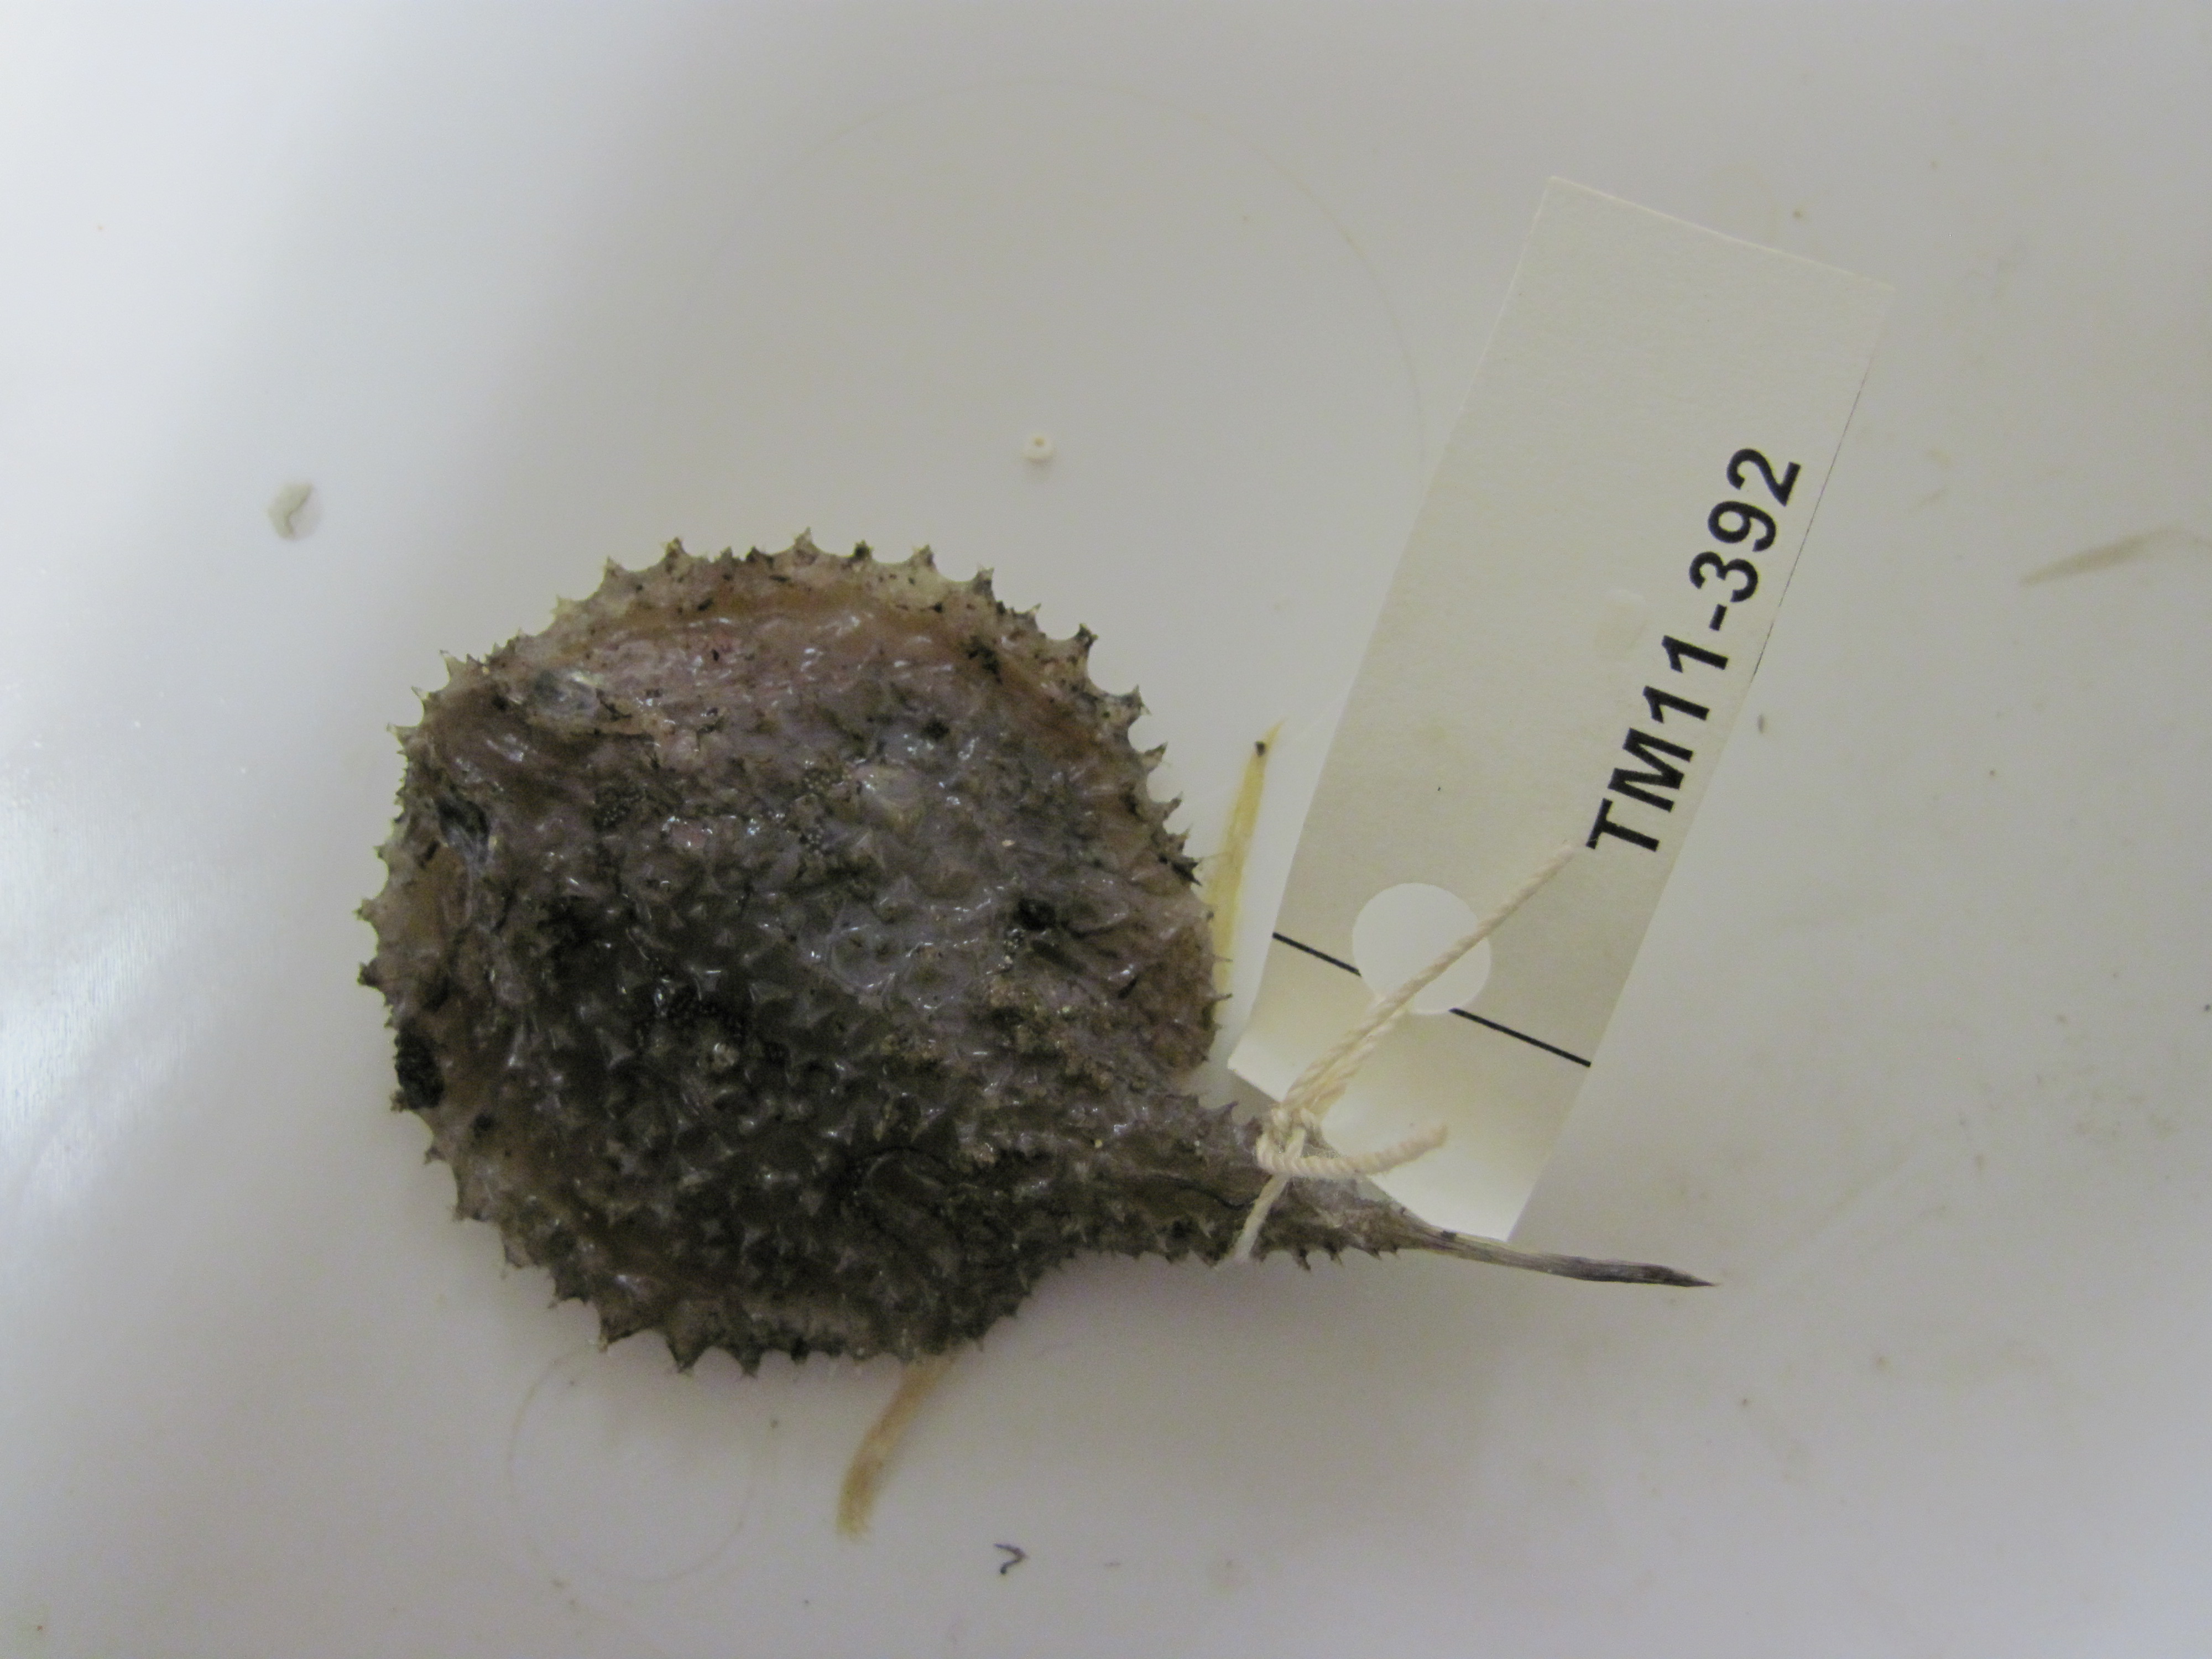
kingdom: Animalia
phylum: Chordata
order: Lophiiformes
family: Ogcocephalidae
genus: Halieutaea
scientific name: Halieutaea fitzsimonsi
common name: Circular seabat
